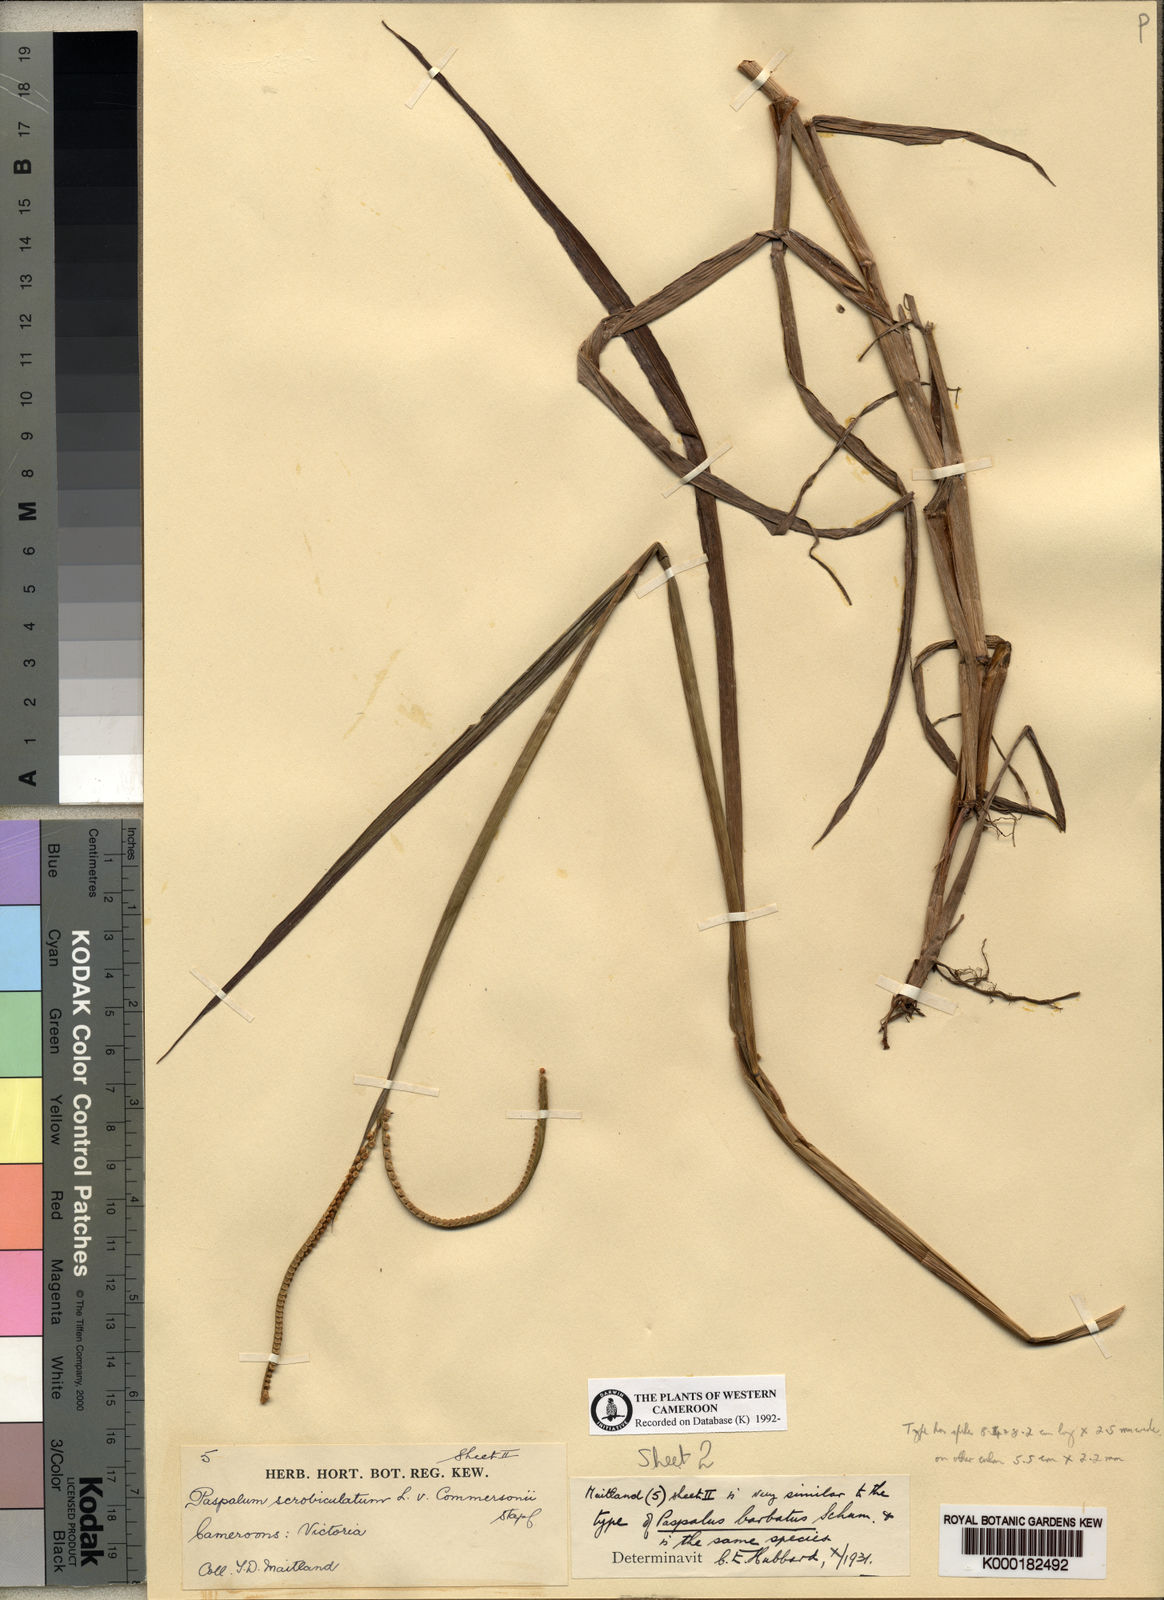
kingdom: Plantae
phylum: Tracheophyta
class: Liliopsida
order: Poales
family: Poaceae
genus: Paspalum
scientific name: Paspalum scrobiculatum
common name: Kodo millet
